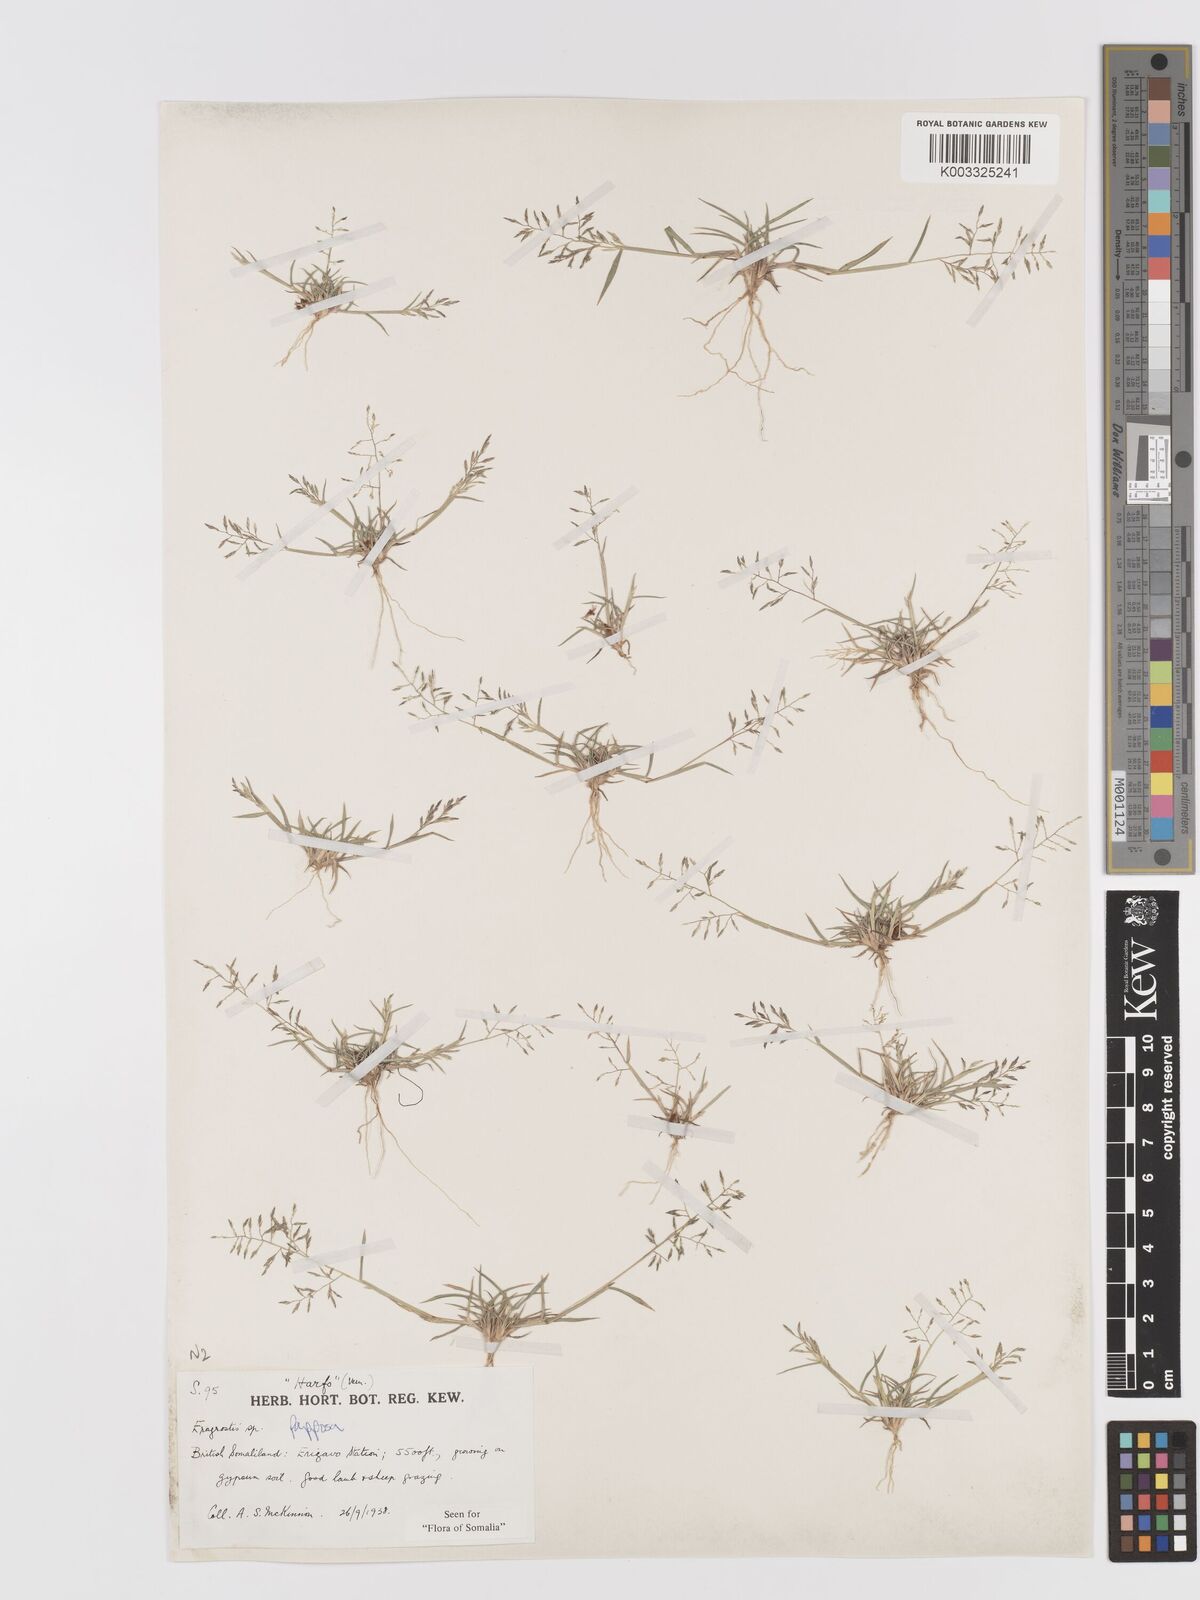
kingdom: Plantae
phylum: Tracheophyta
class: Liliopsida
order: Poales
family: Poaceae
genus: Eragrostis
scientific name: Eragrostis papposa
